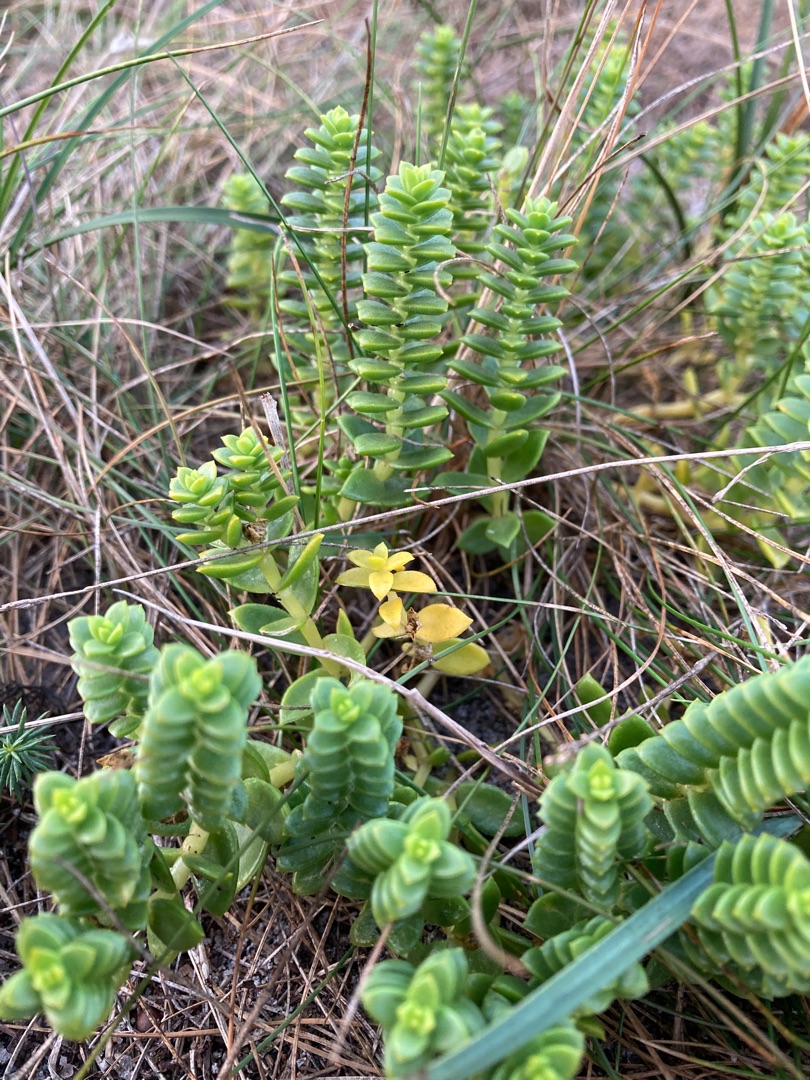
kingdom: Plantae
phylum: Tracheophyta
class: Magnoliopsida
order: Caryophyllales
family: Caryophyllaceae
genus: Honckenya
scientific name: Honckenya peploides
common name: Strandarve
